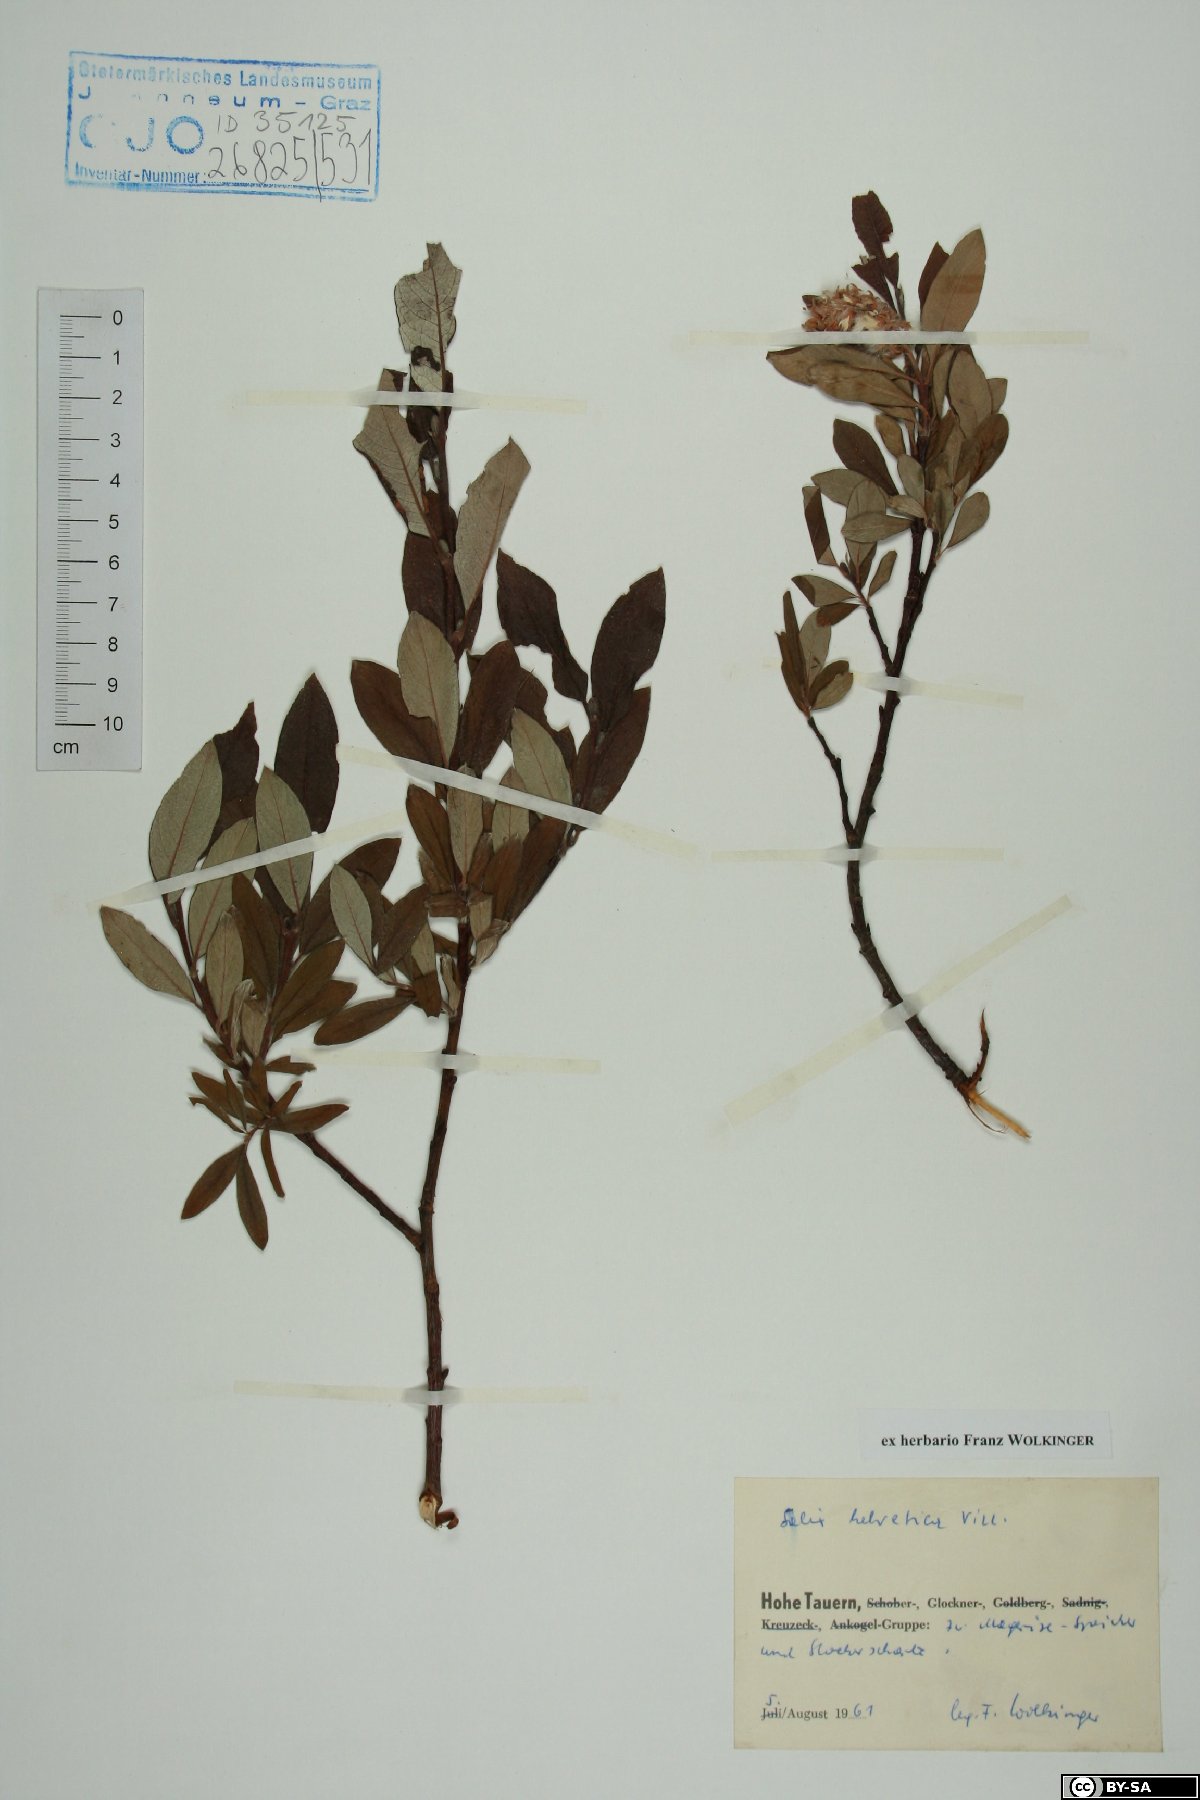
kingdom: Plantae
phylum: Tracheophyta
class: Magnoliopsida
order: Malpighiales
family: Salicaceae
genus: Salix
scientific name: Salix helvetica
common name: Swiss willow
